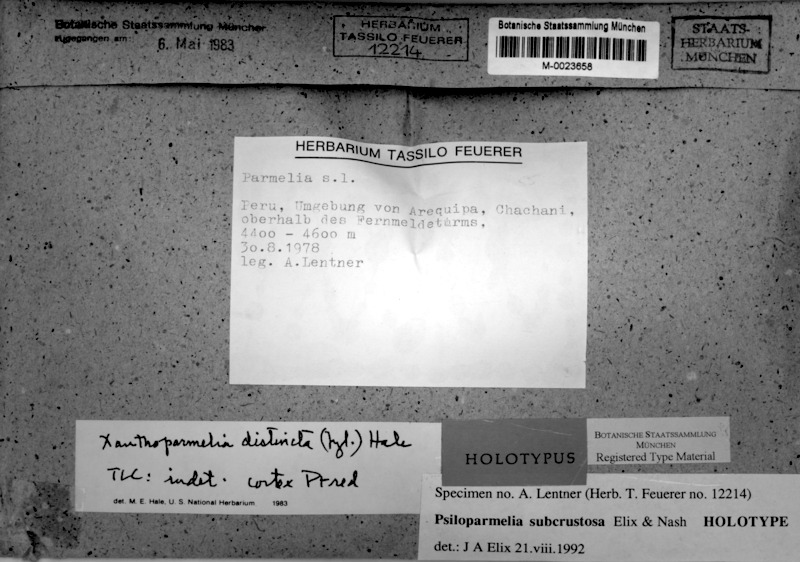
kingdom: Fungi
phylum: Ascomycota
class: Lecanoromycetes
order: Lecanorales
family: Parmeliaceae
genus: Psiloparmelia
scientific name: Psiloparmelia subcrustosa
